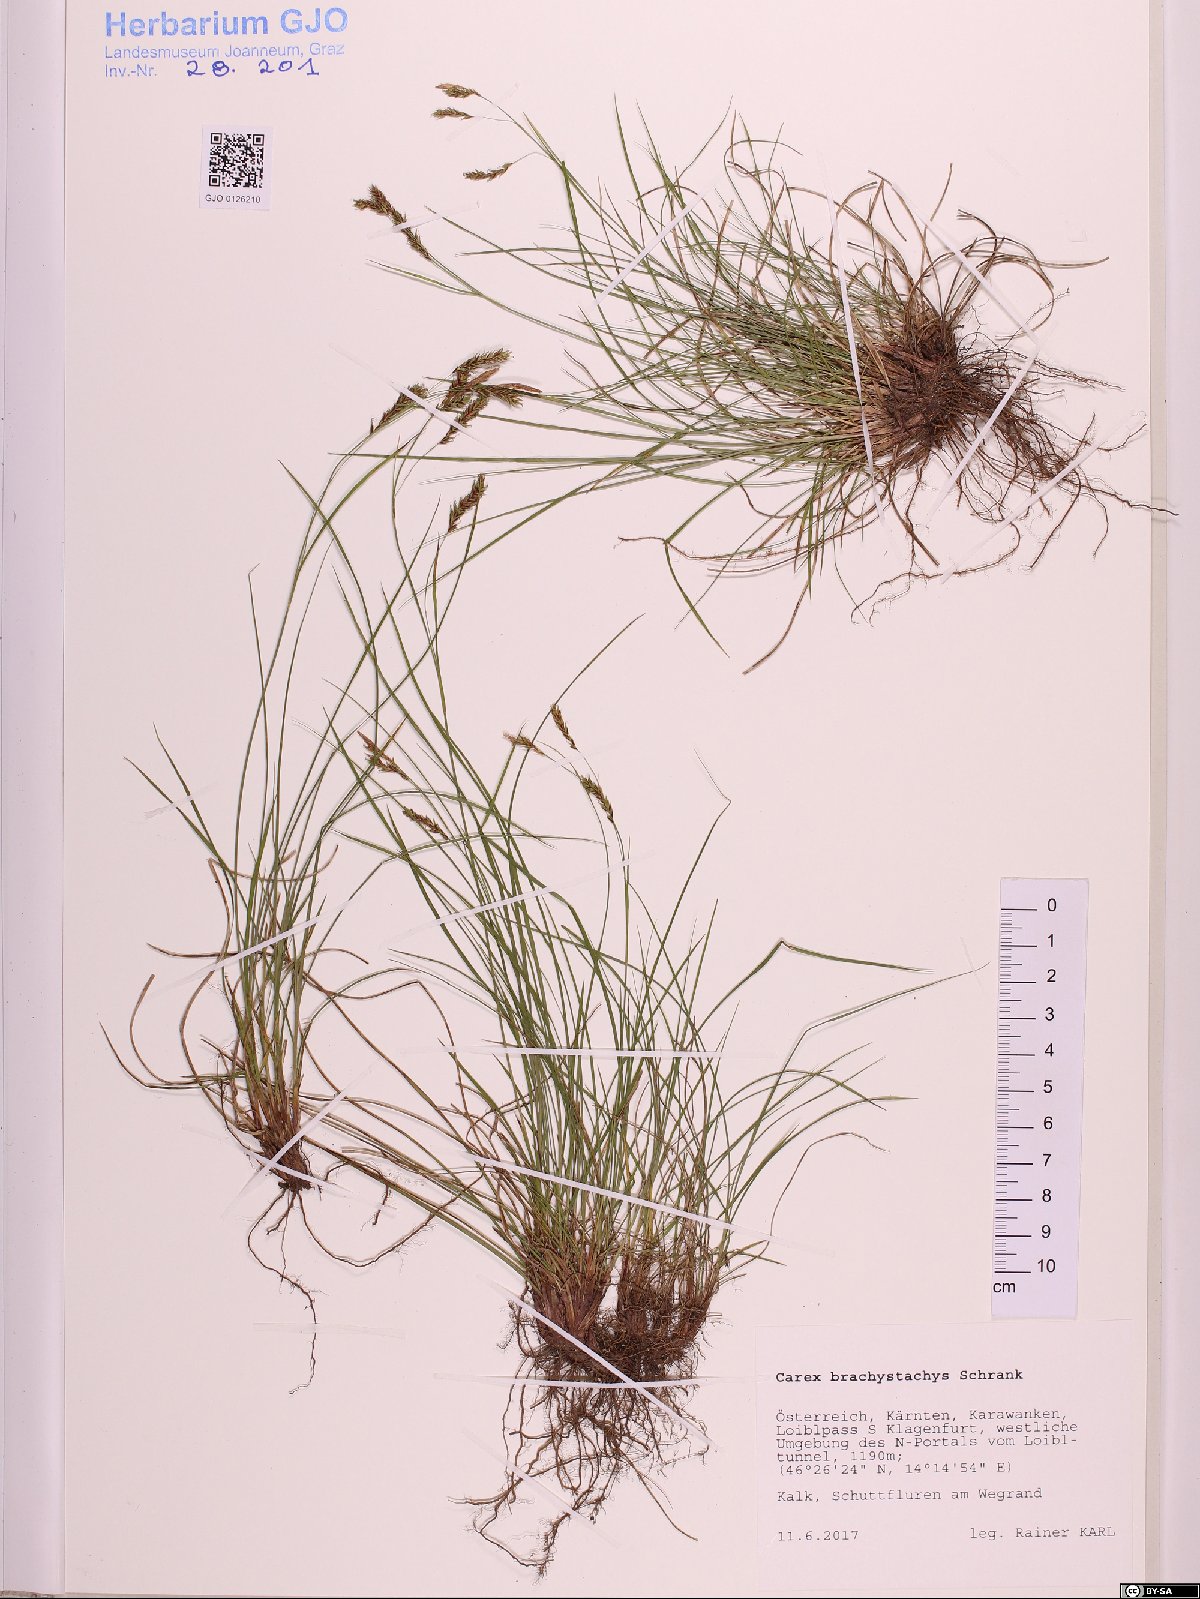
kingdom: Plantae
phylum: Tracheophyta
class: Liliopsida
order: Poales
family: Cyperaceae
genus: Carex
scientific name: Carex brachystachys
